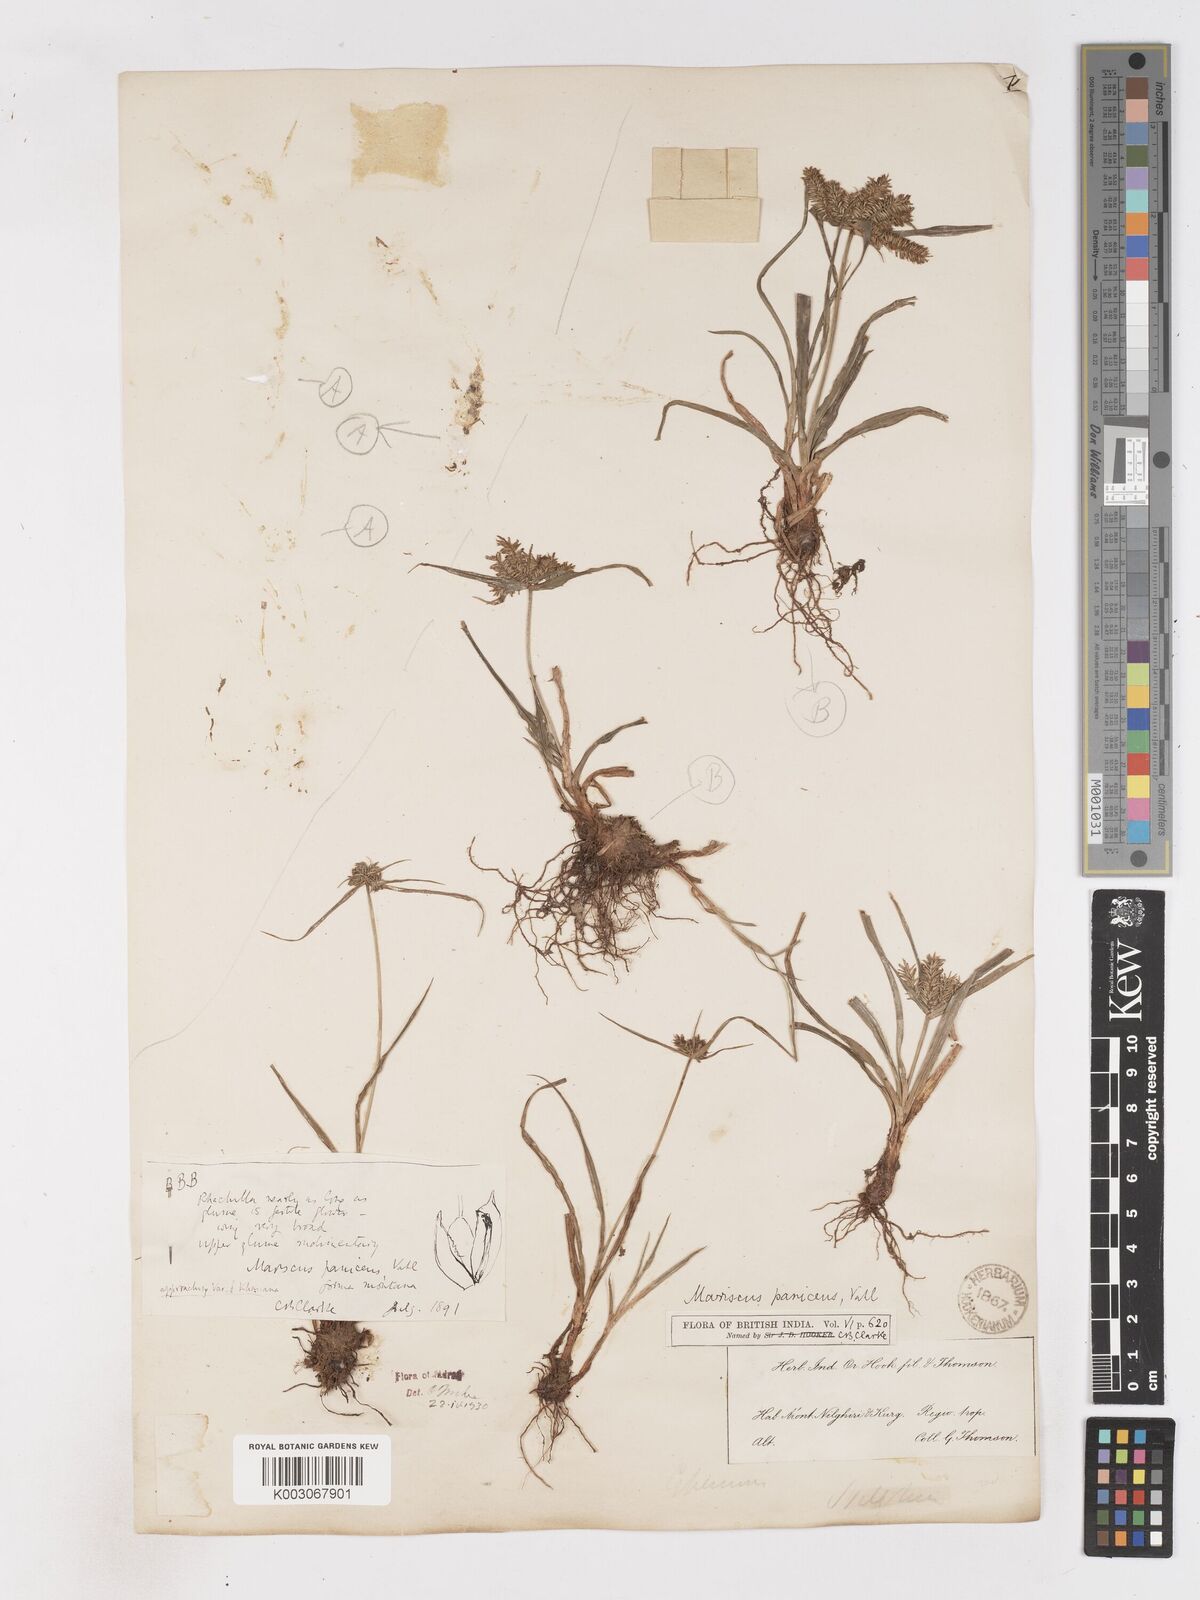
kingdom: Plantae
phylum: Tracheophyta
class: Liliopsida
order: Poales
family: Cyperaceae
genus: Cyperus
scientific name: Cyperus cyperinus
